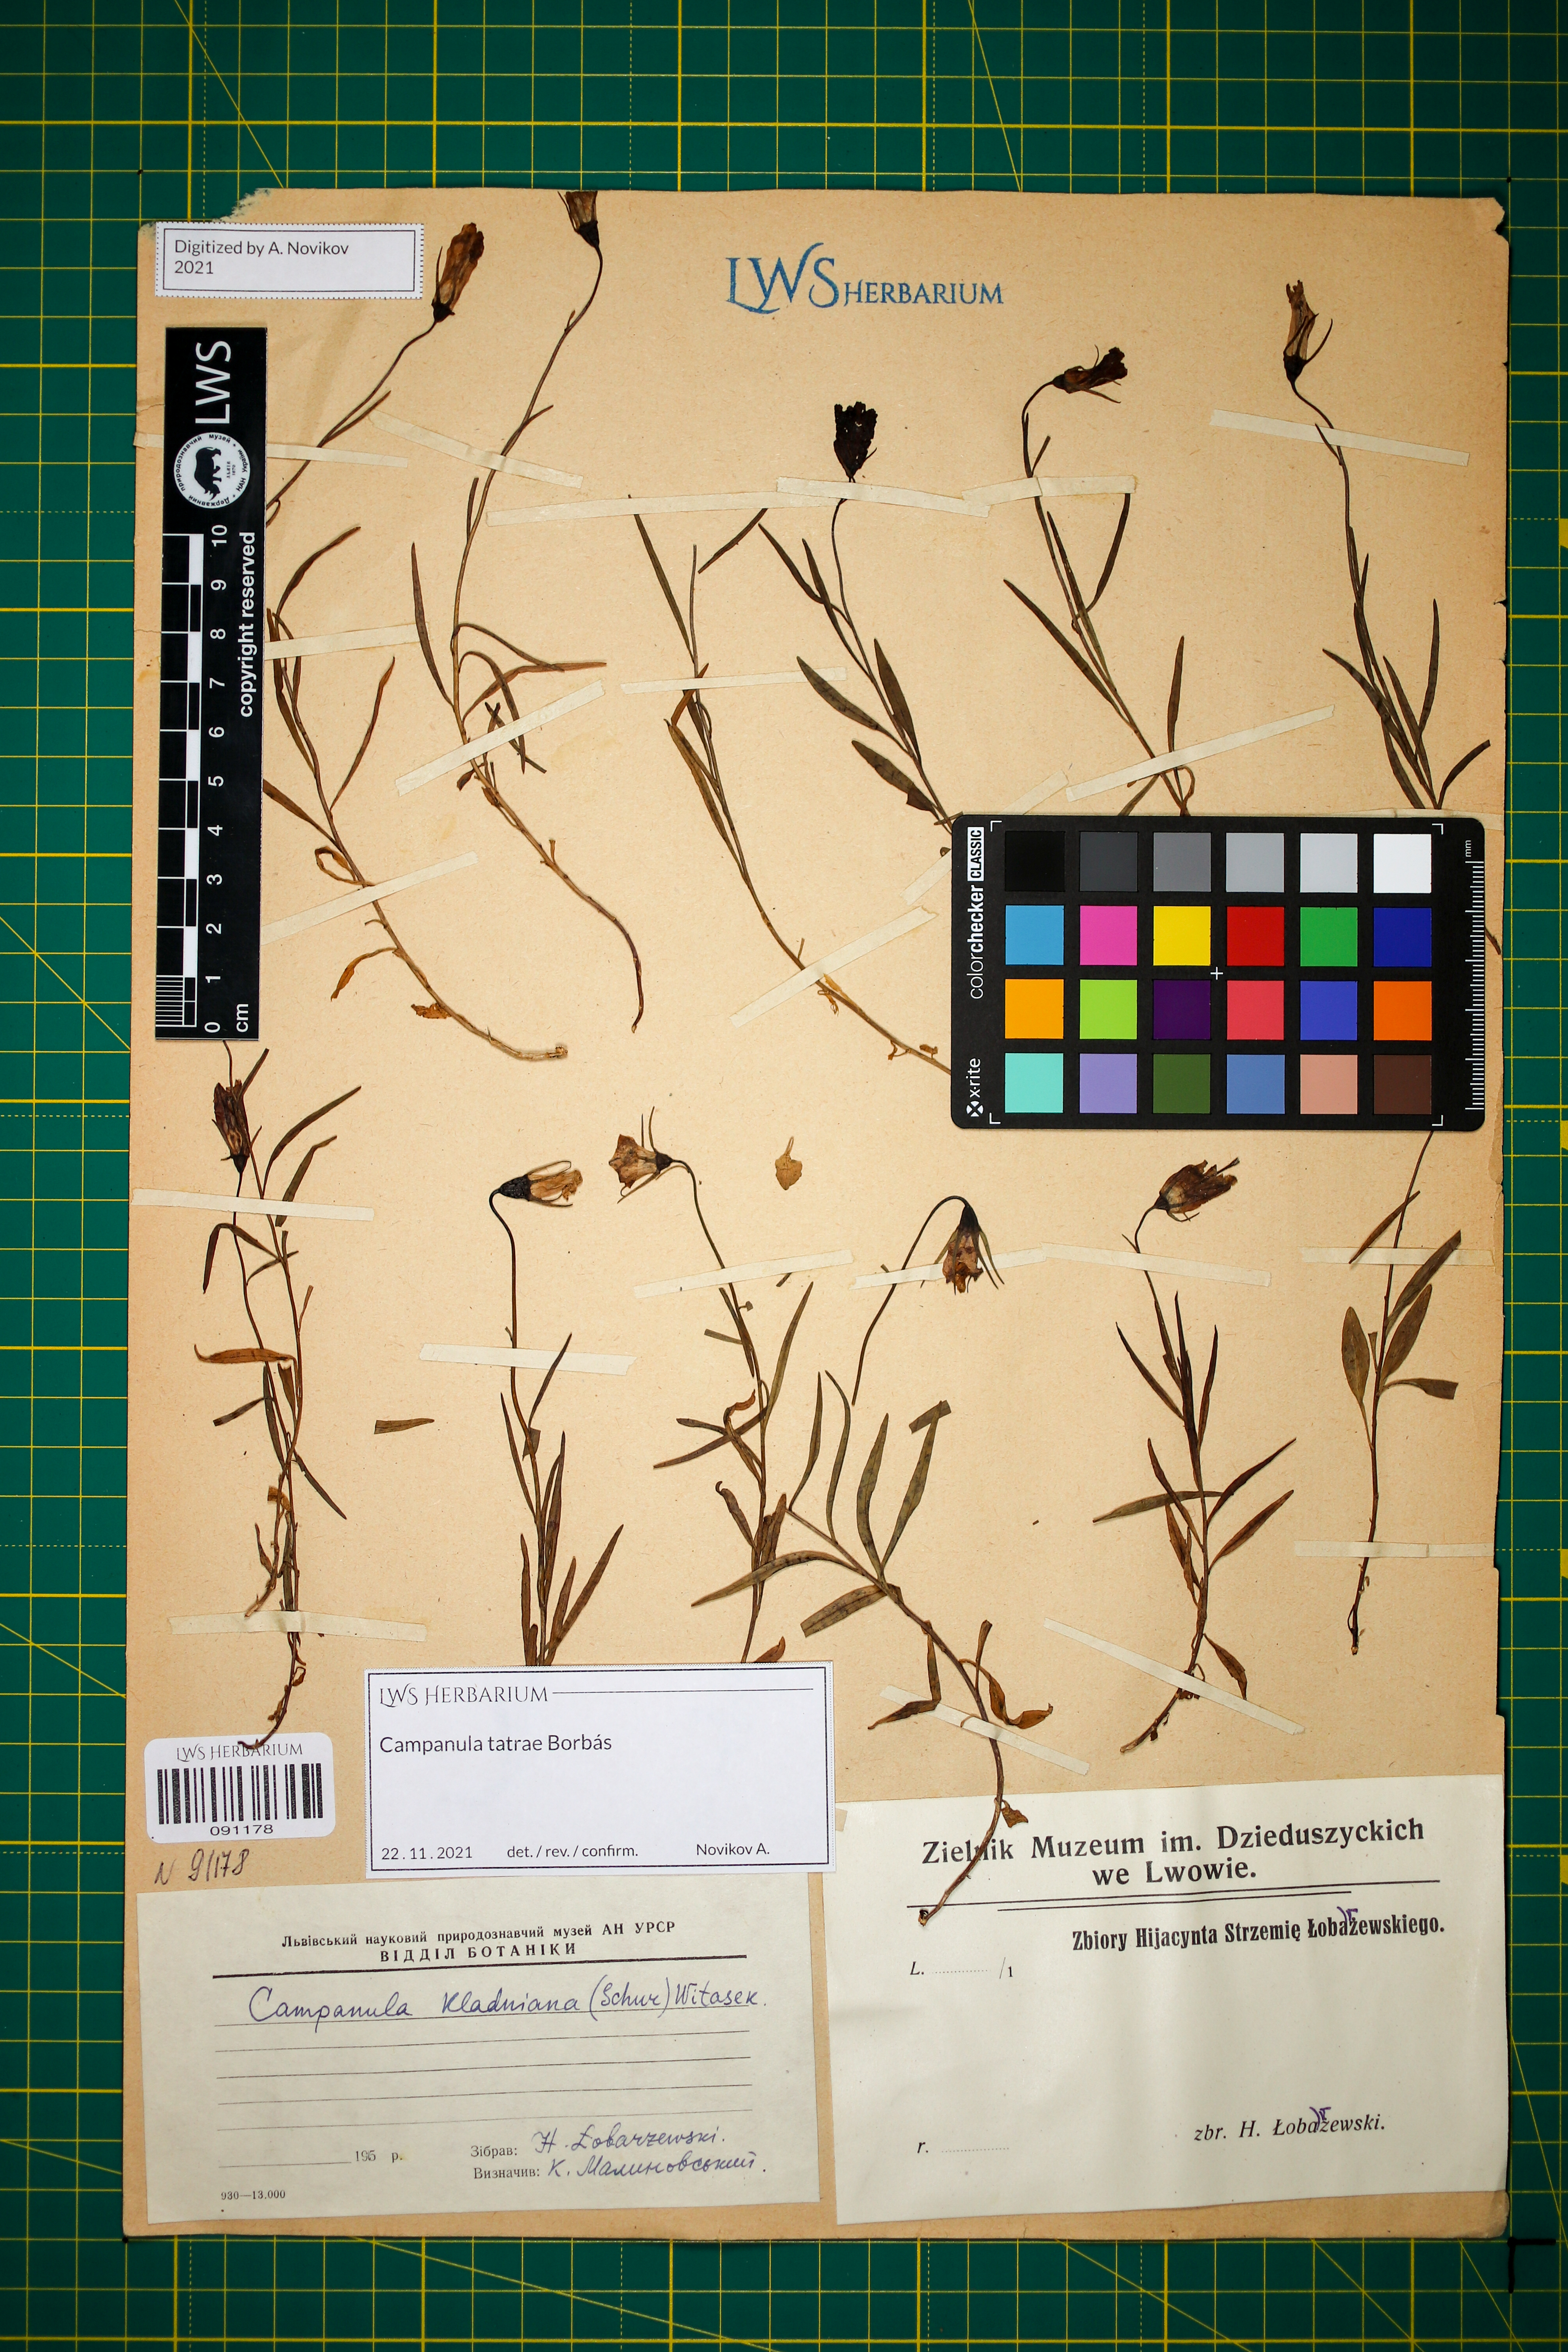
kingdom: Plantae
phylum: Tracheophyta
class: Magnoliopsida
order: Asterales
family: Campanulaceae
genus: Campanula
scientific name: Campanula kladniana
